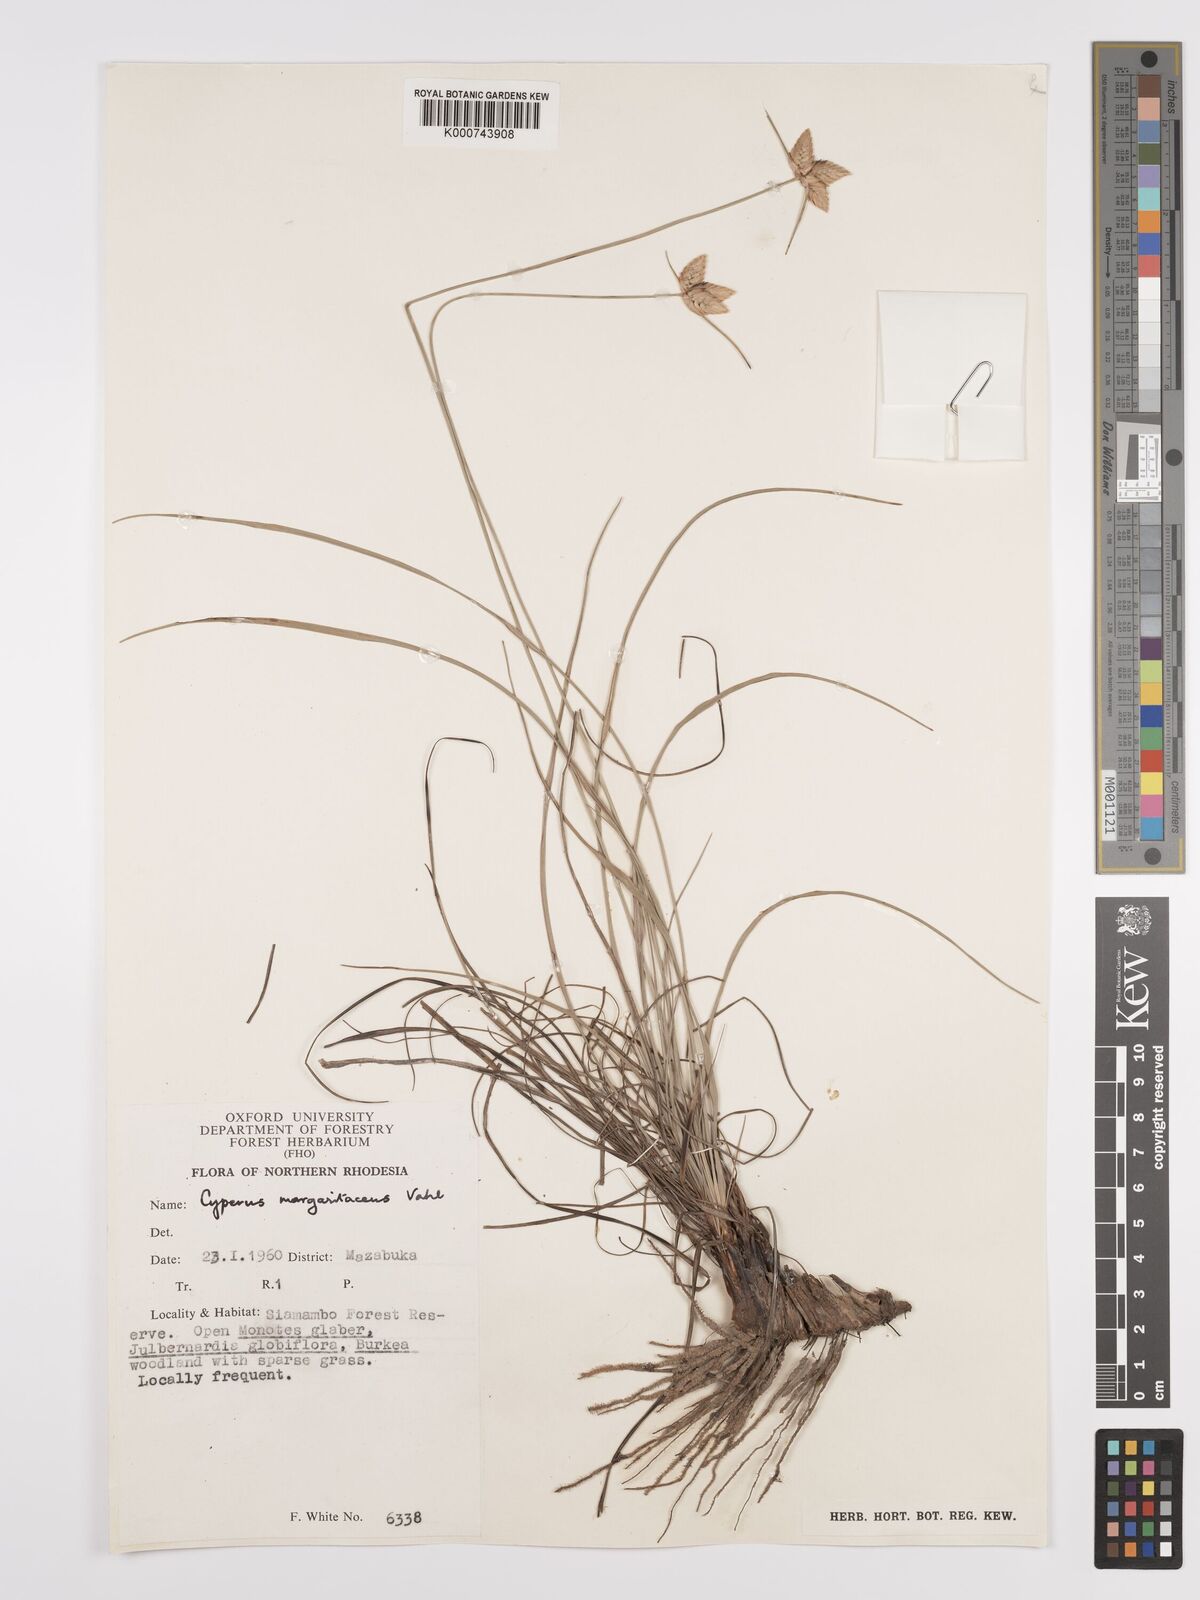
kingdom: Plantae
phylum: Tracheophyta
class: Liliopsida
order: Poales
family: Cyperaceae
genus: Cyperus
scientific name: Cyperus margaritaceus
